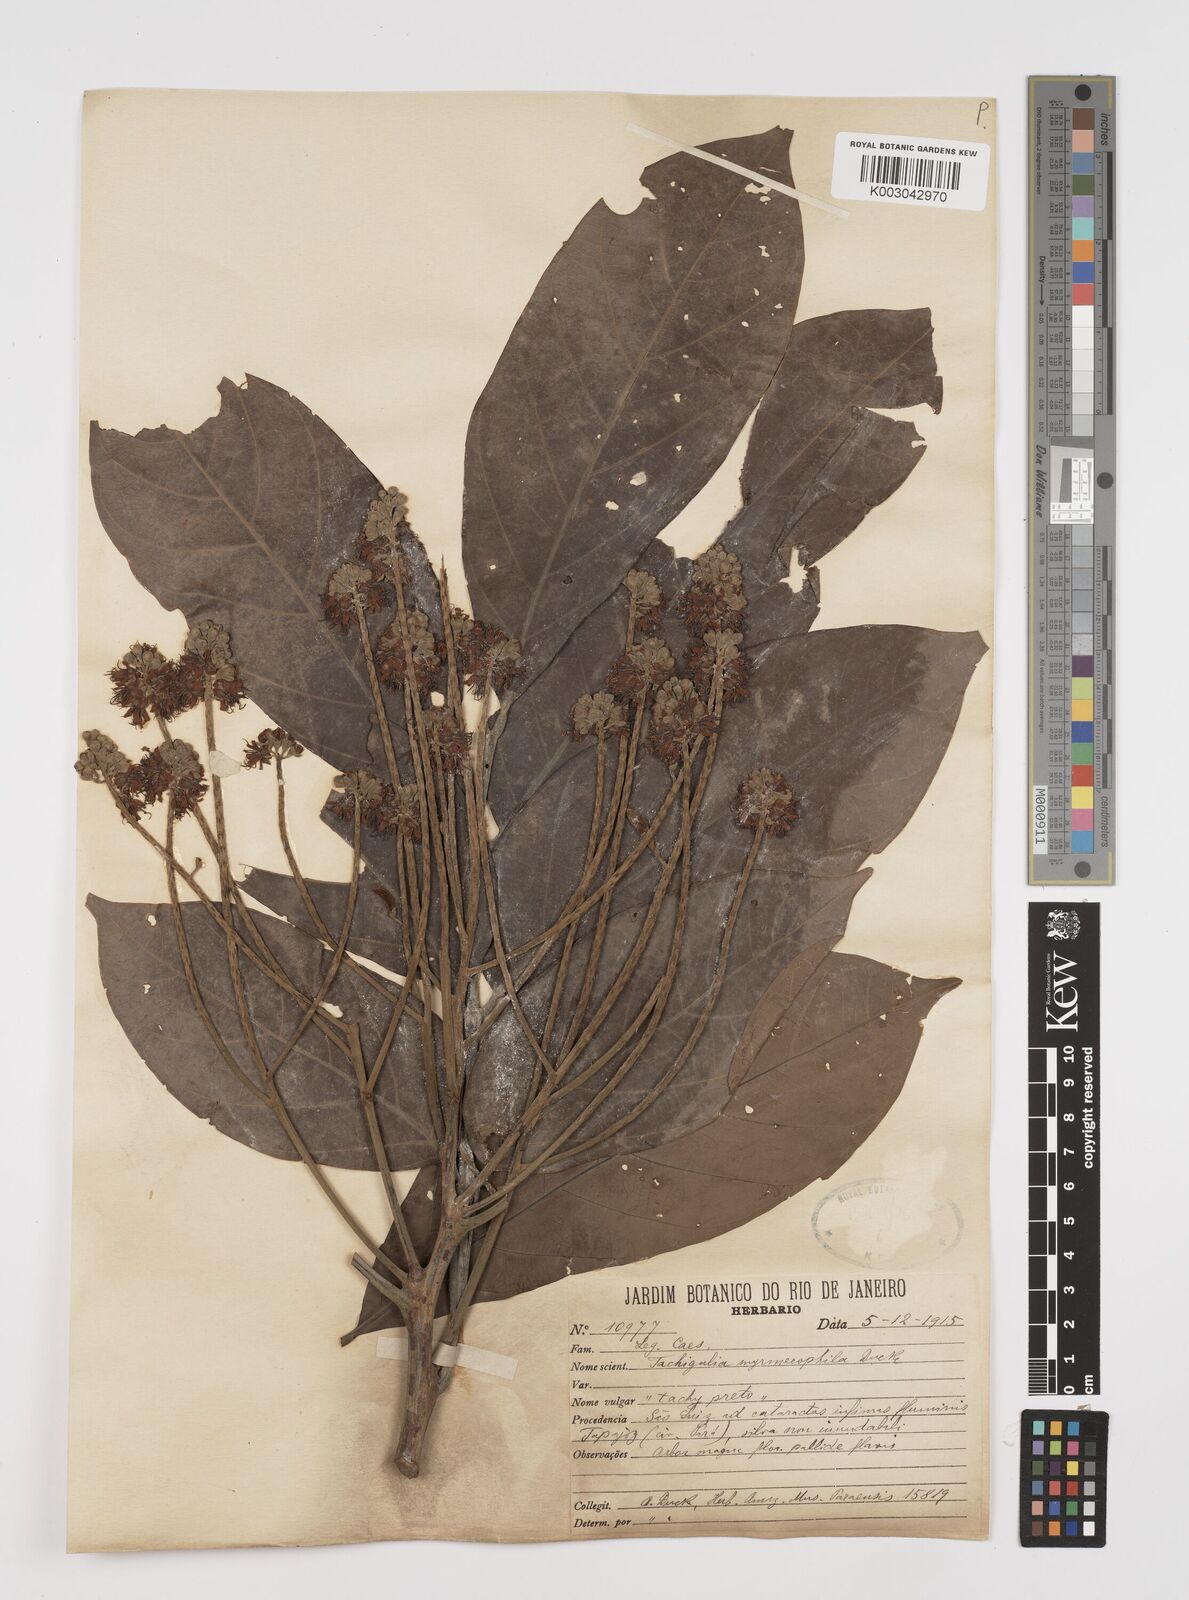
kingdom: Plantae
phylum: Tracheophyta
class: Magnoliopsida
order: Fabales
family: Fabaceae
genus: Tachigali
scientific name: Tachigali glauca
